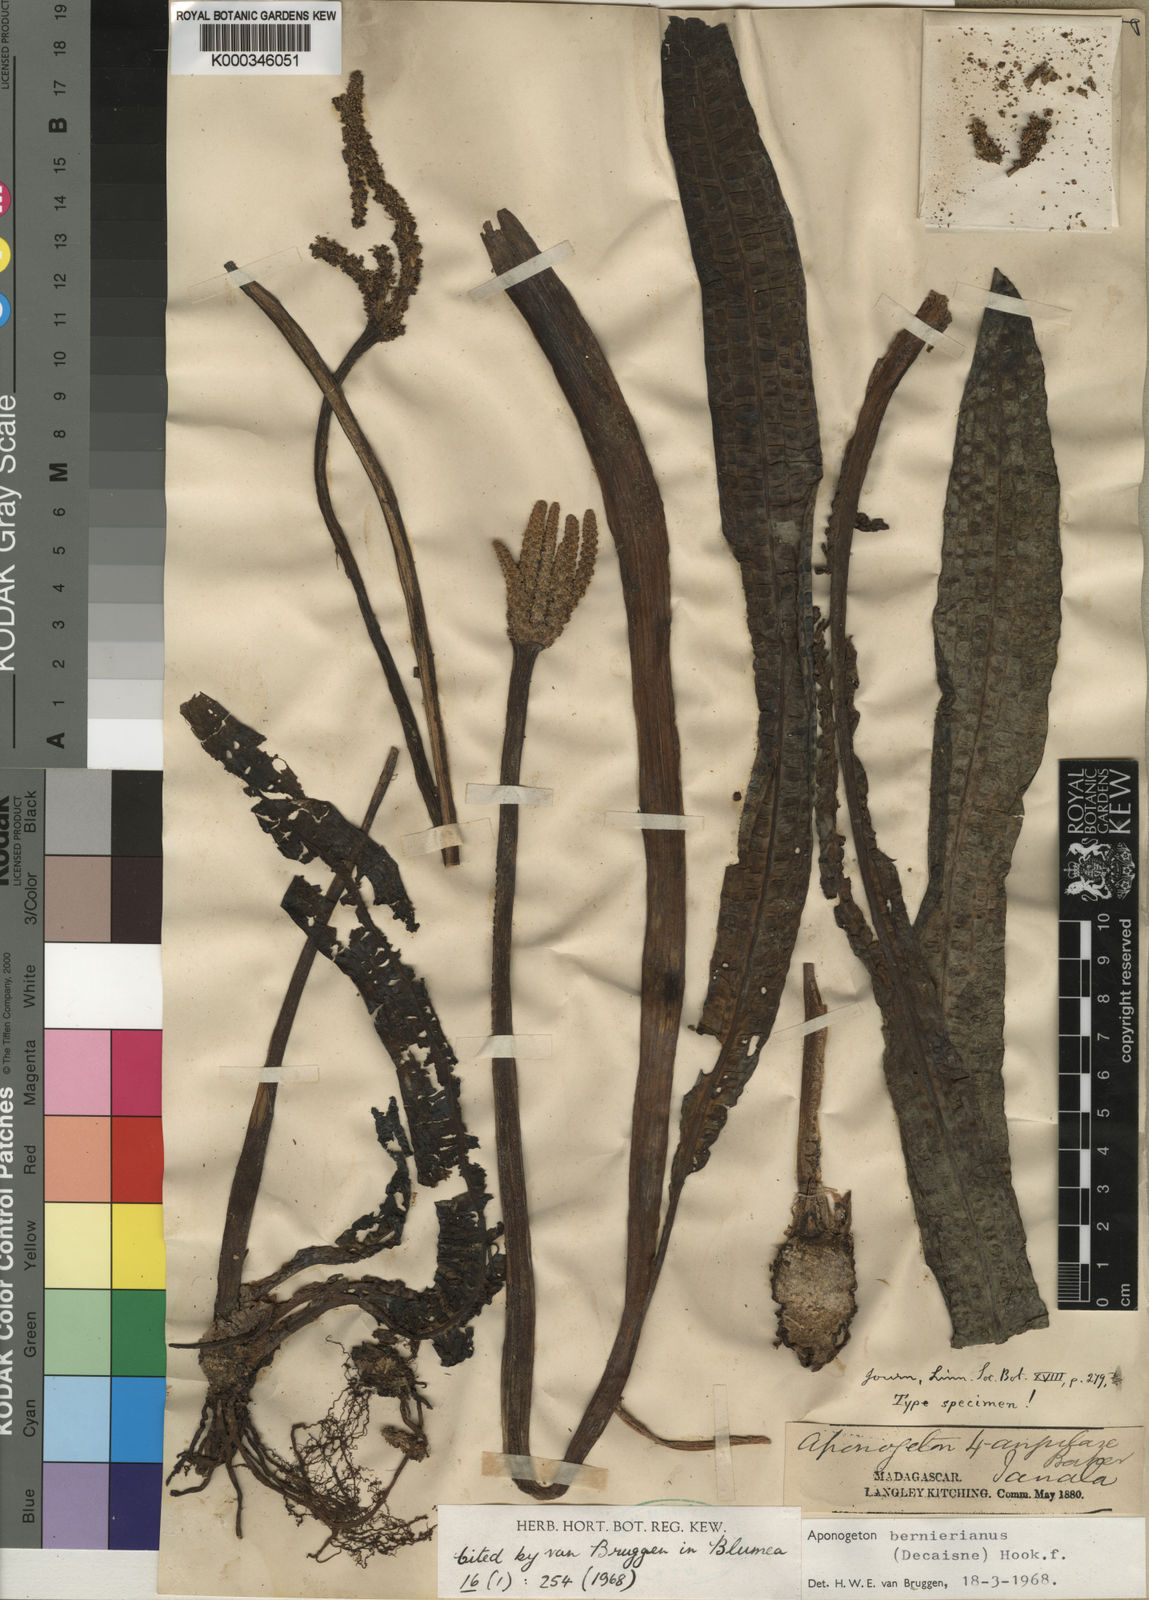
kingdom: Plantae
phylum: Tracheophyta
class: Liliopsida
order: Alismatales
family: Aponogetonaceae
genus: Aponogeton
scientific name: Aponogeton bernierianus
